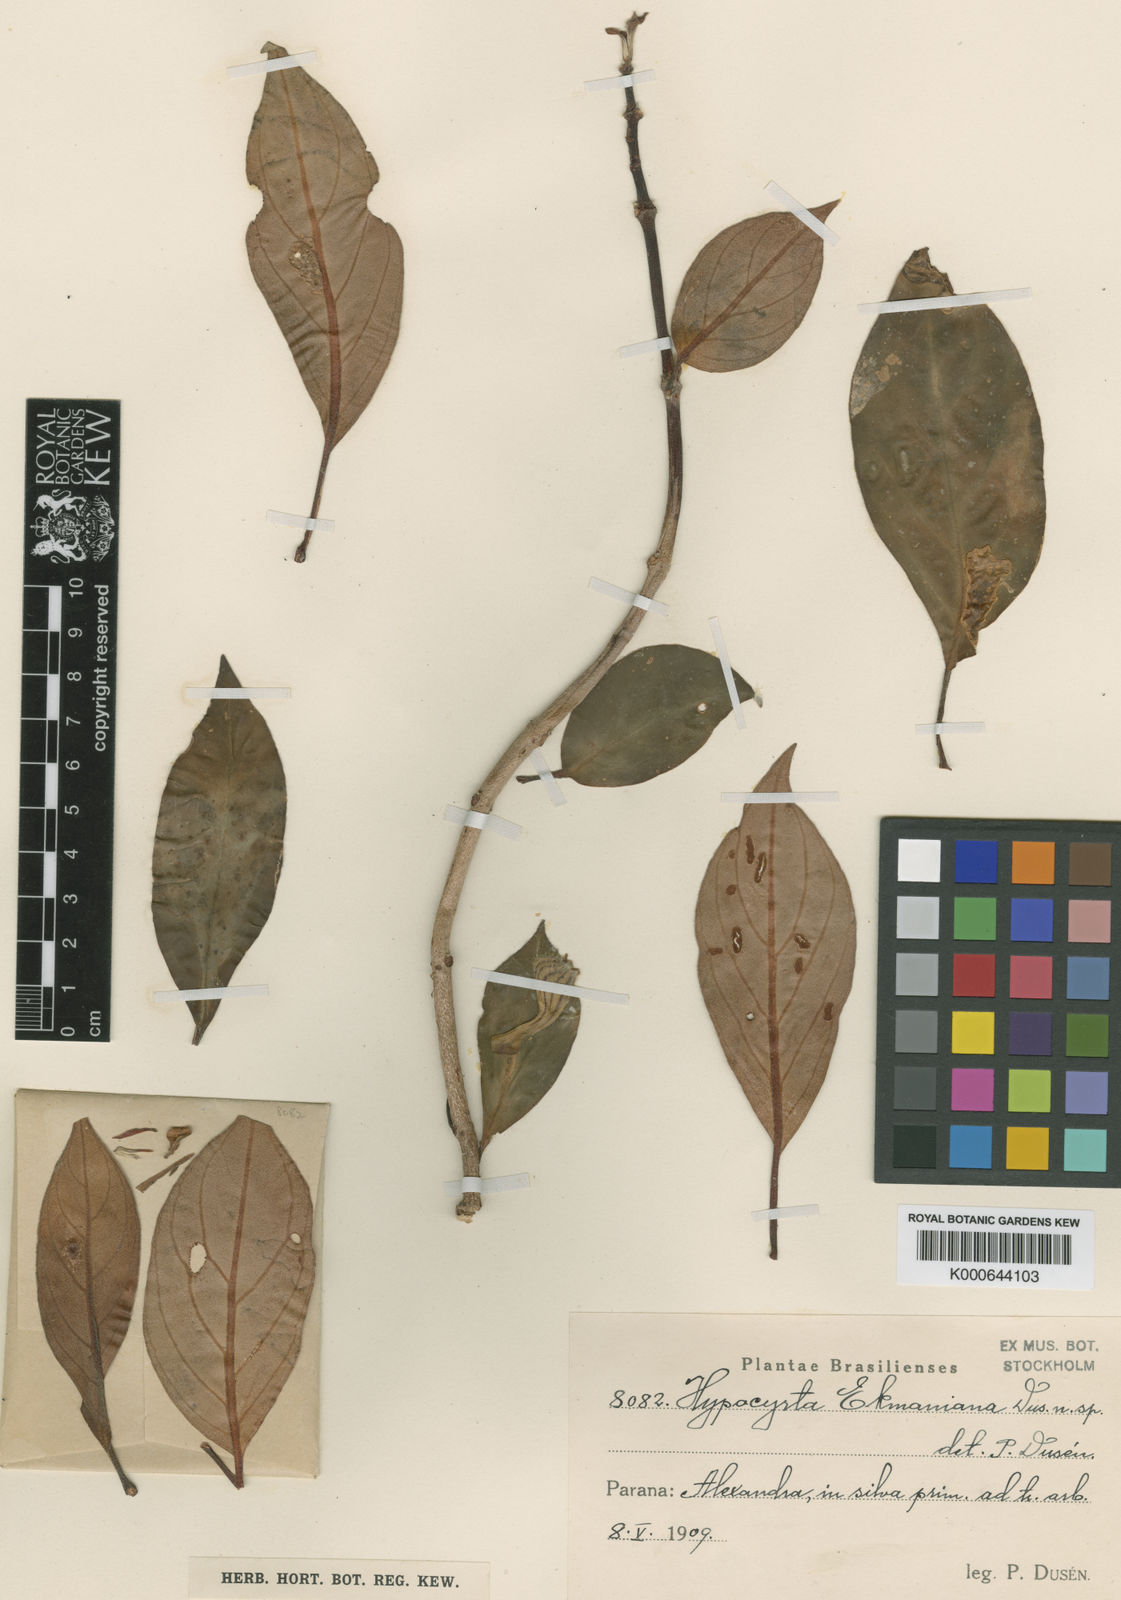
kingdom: Plantae
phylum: Tracheophyta
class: Magnoliopsida
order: Lamiales
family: Gesneriaceae
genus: Nematanthus
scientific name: Nematanthus tessmannii
